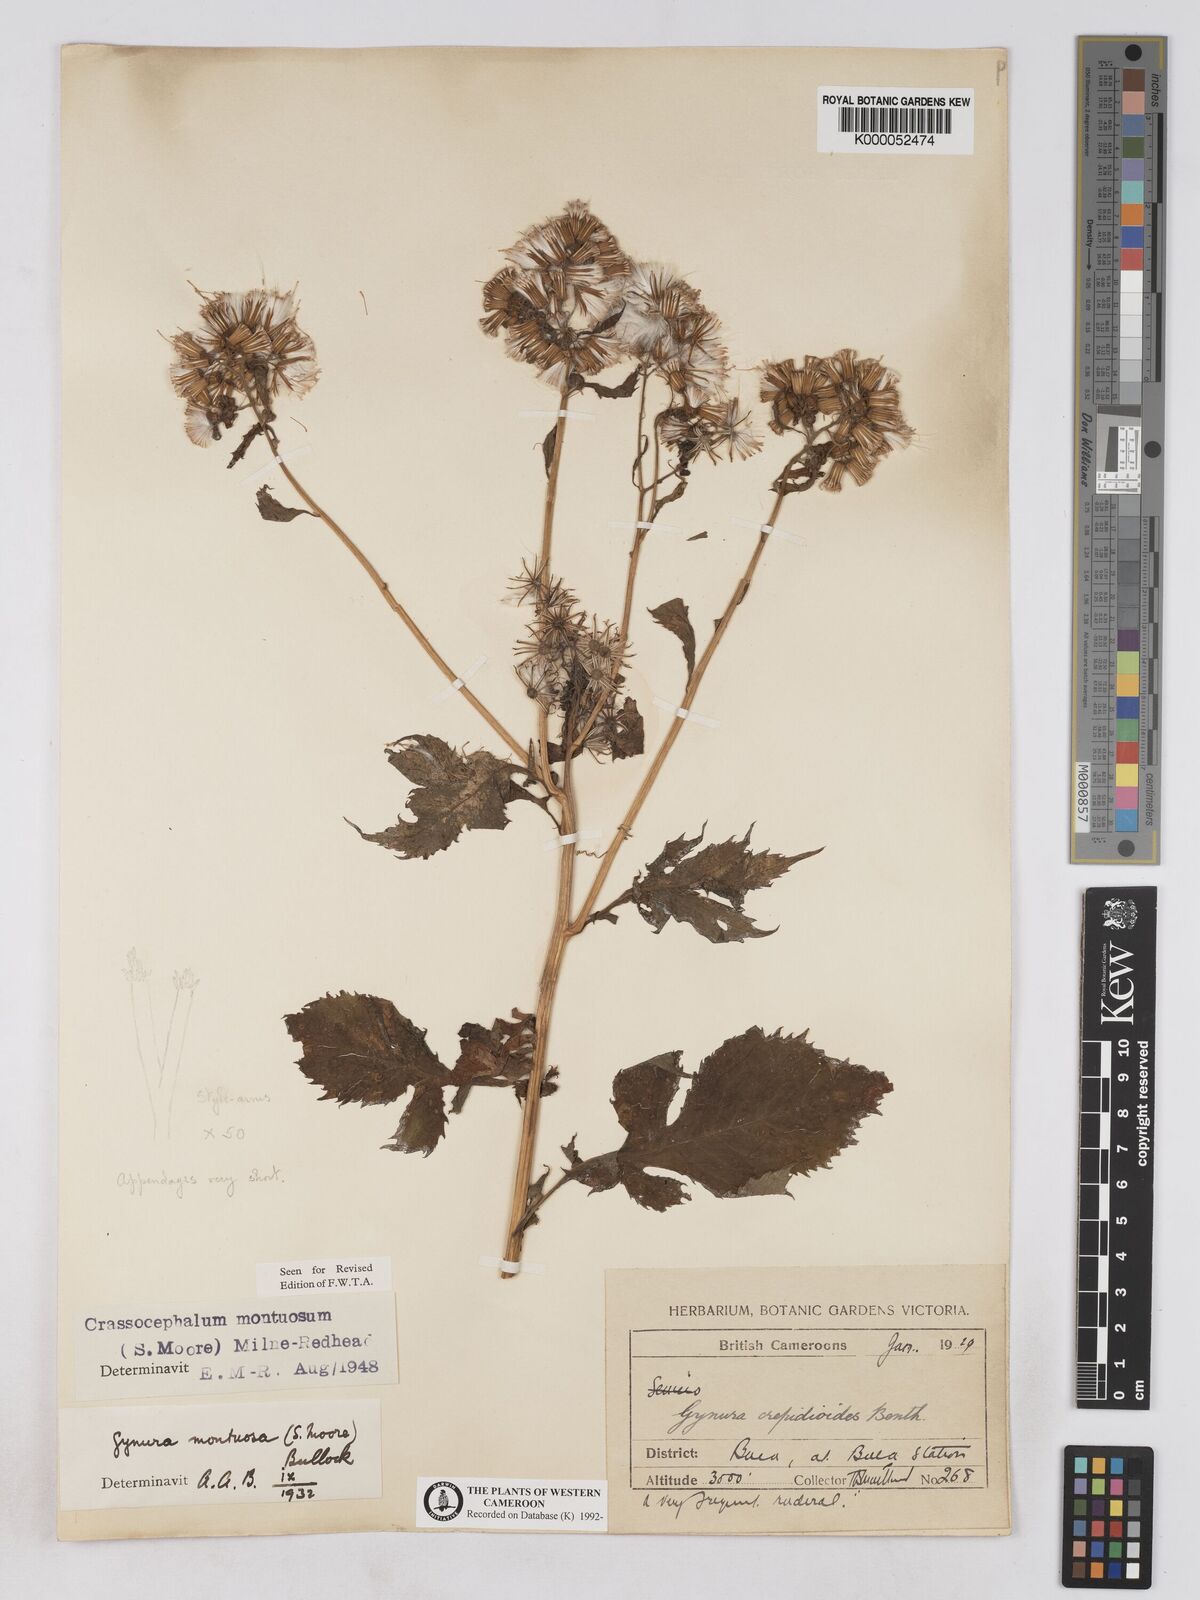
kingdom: Plantae
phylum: Tracheophyta
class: Magnoliopsida
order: Asterales
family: Asteraceae
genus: Crassocephalum
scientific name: Crassocephalum montuosum
